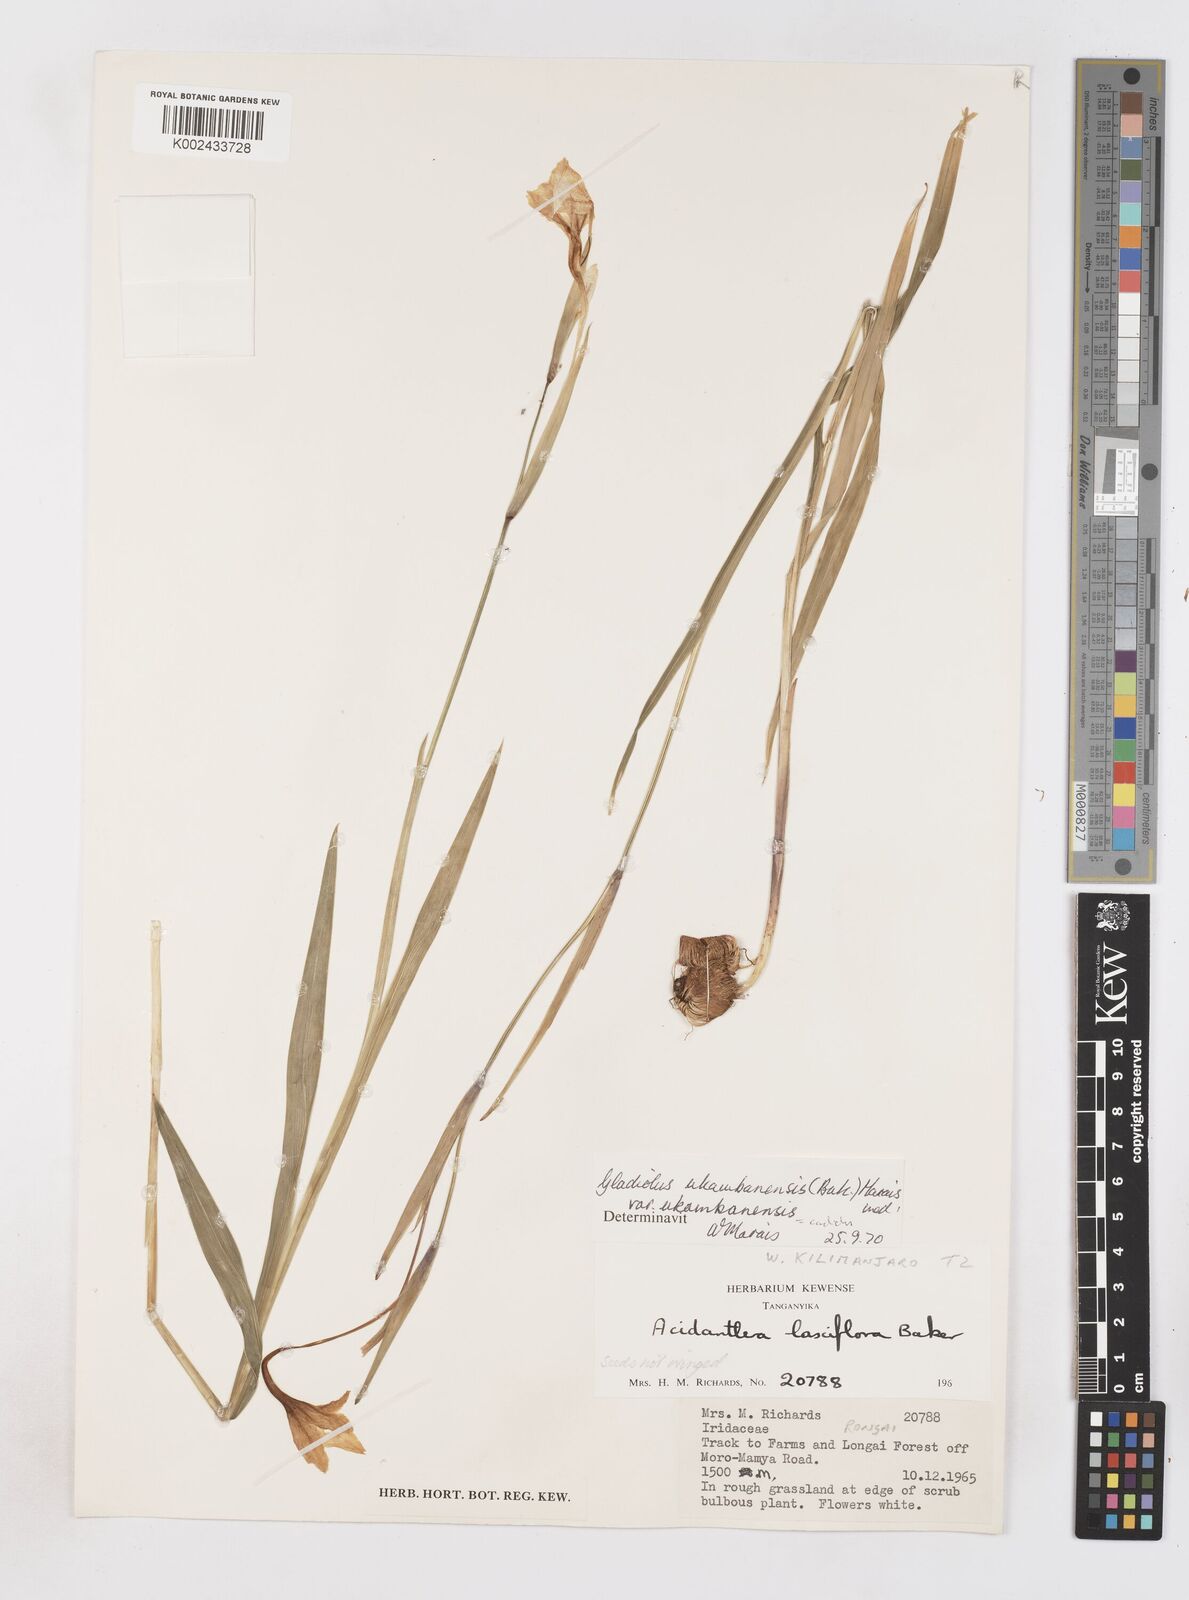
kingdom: Plantae
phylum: Tracheophyta
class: Liliopsida
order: Asparagales
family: Iridaceae
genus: Gladiolus
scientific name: Gladiolus candidus
